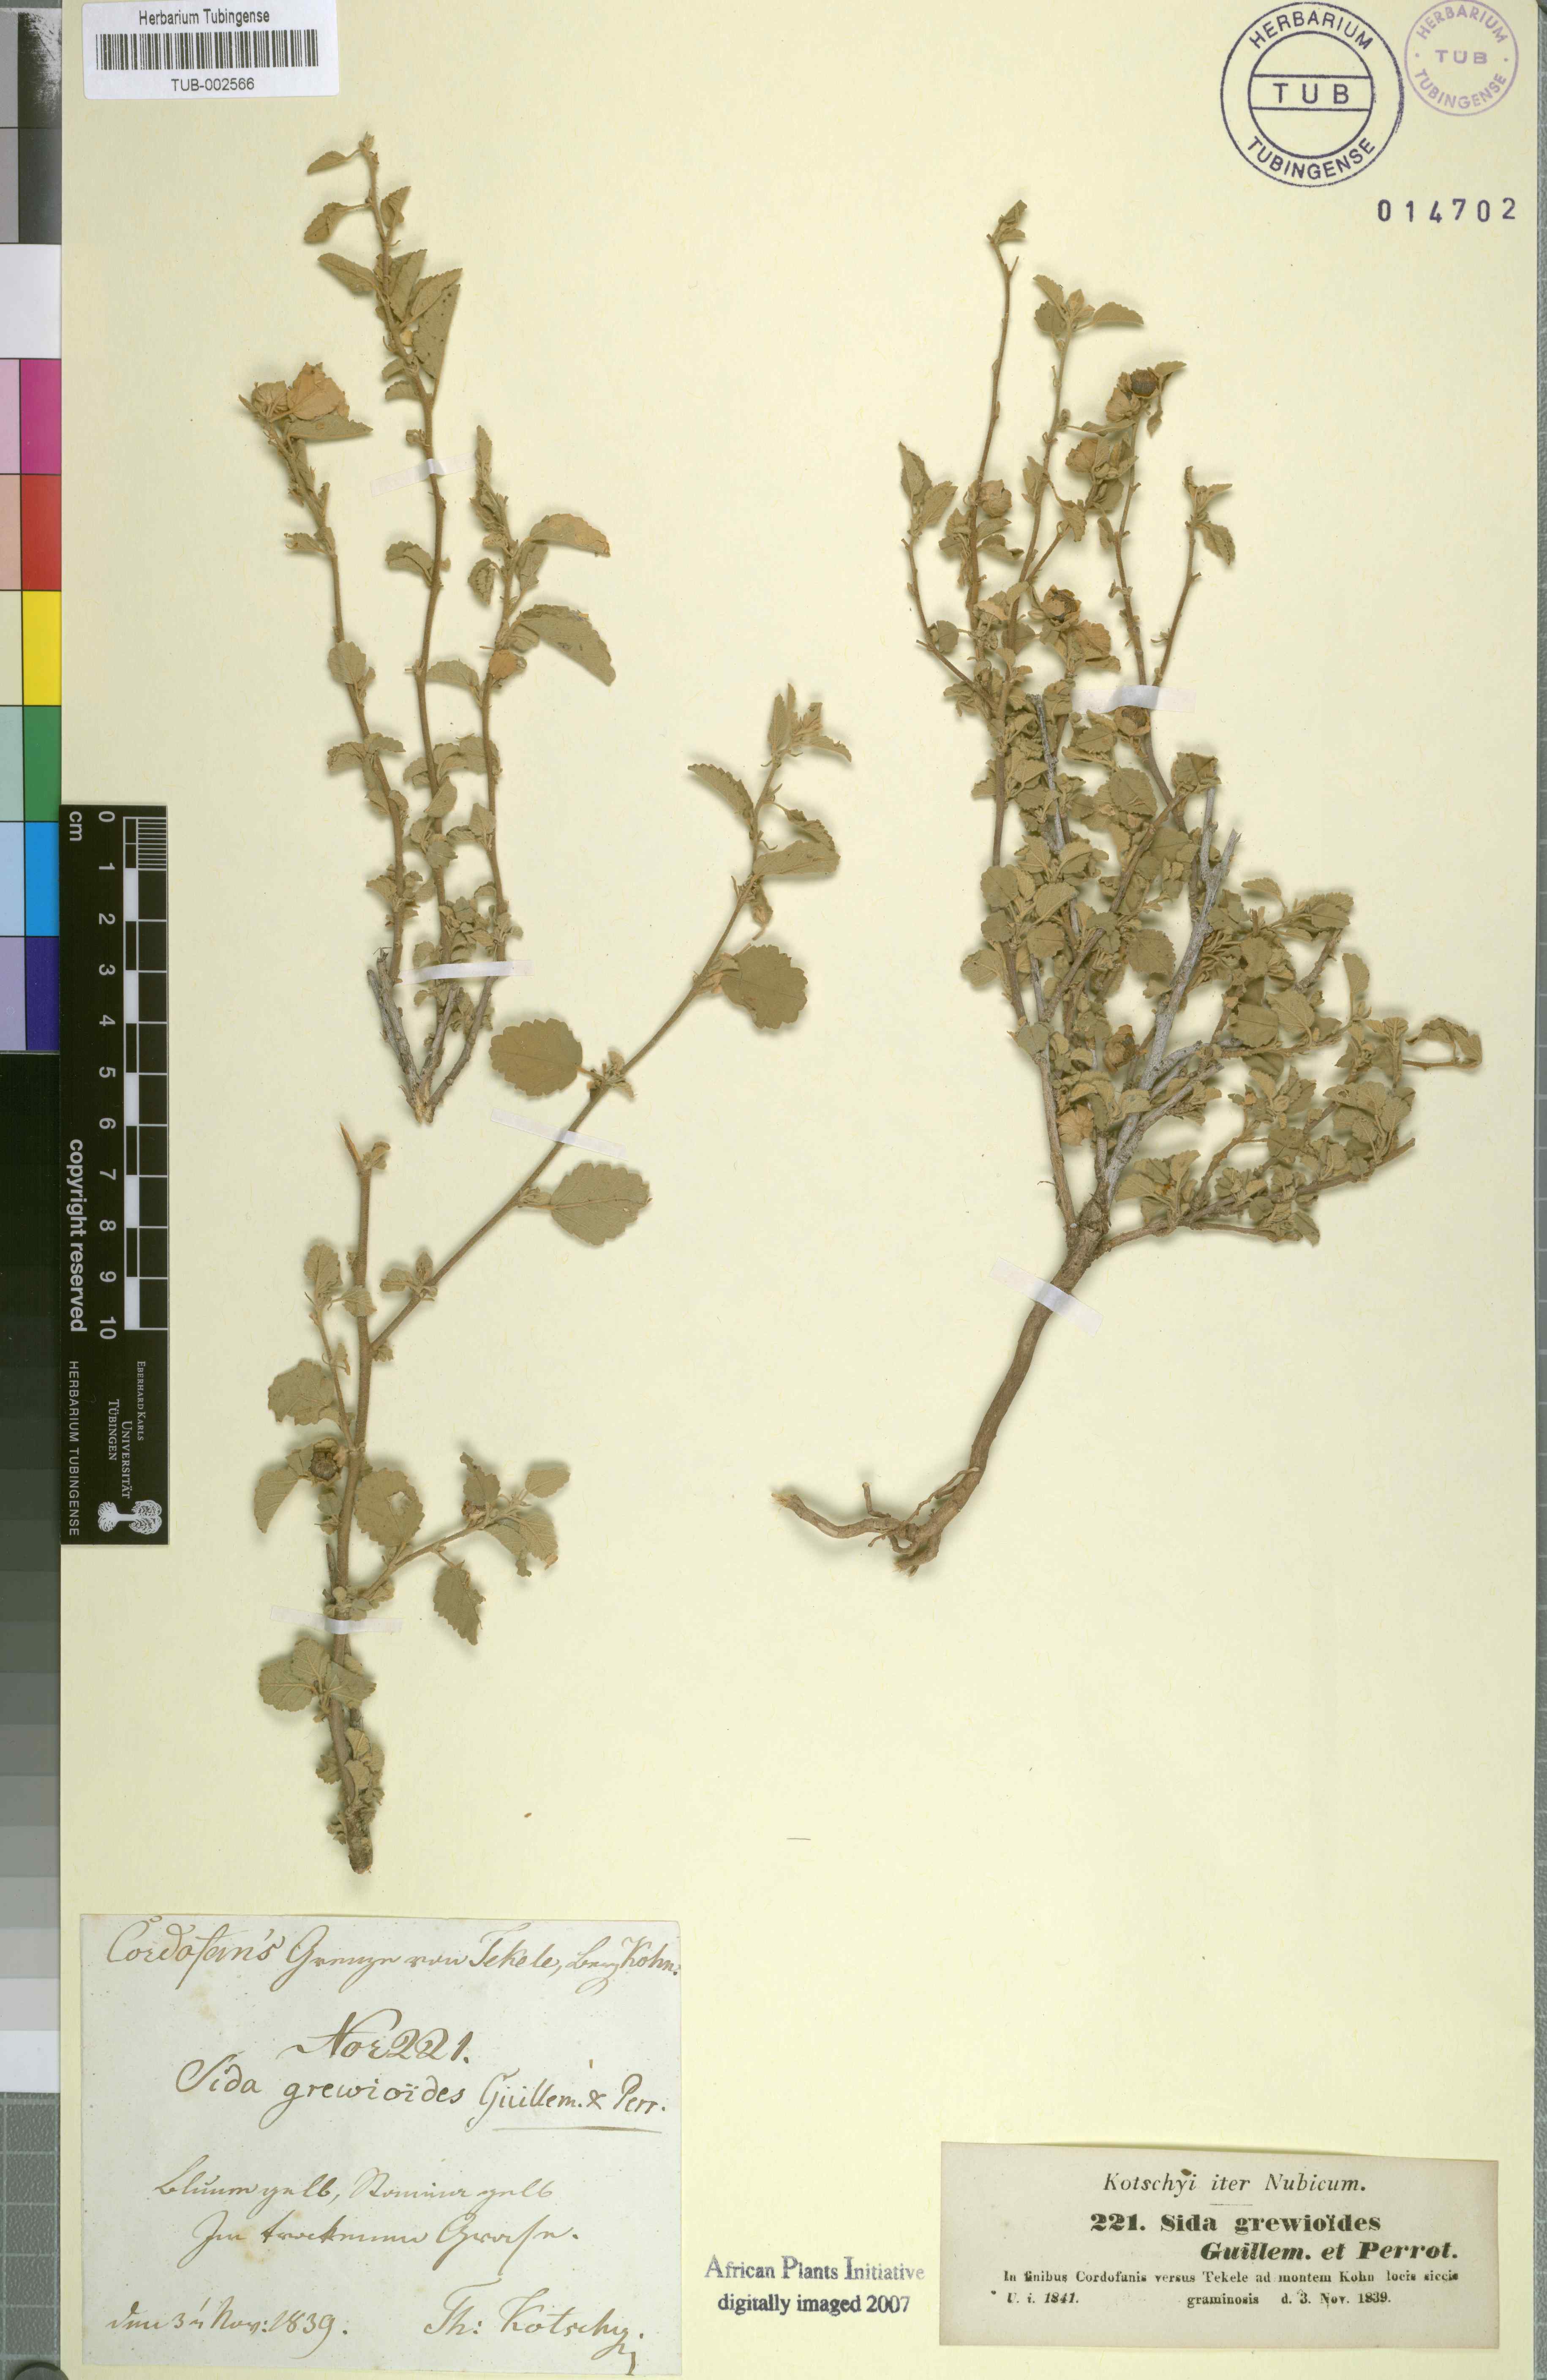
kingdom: Plantae
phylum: Tracheophyta
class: Magnoliopsida
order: Malvales
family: Malvaceae
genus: Sida
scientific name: Sida ovata
